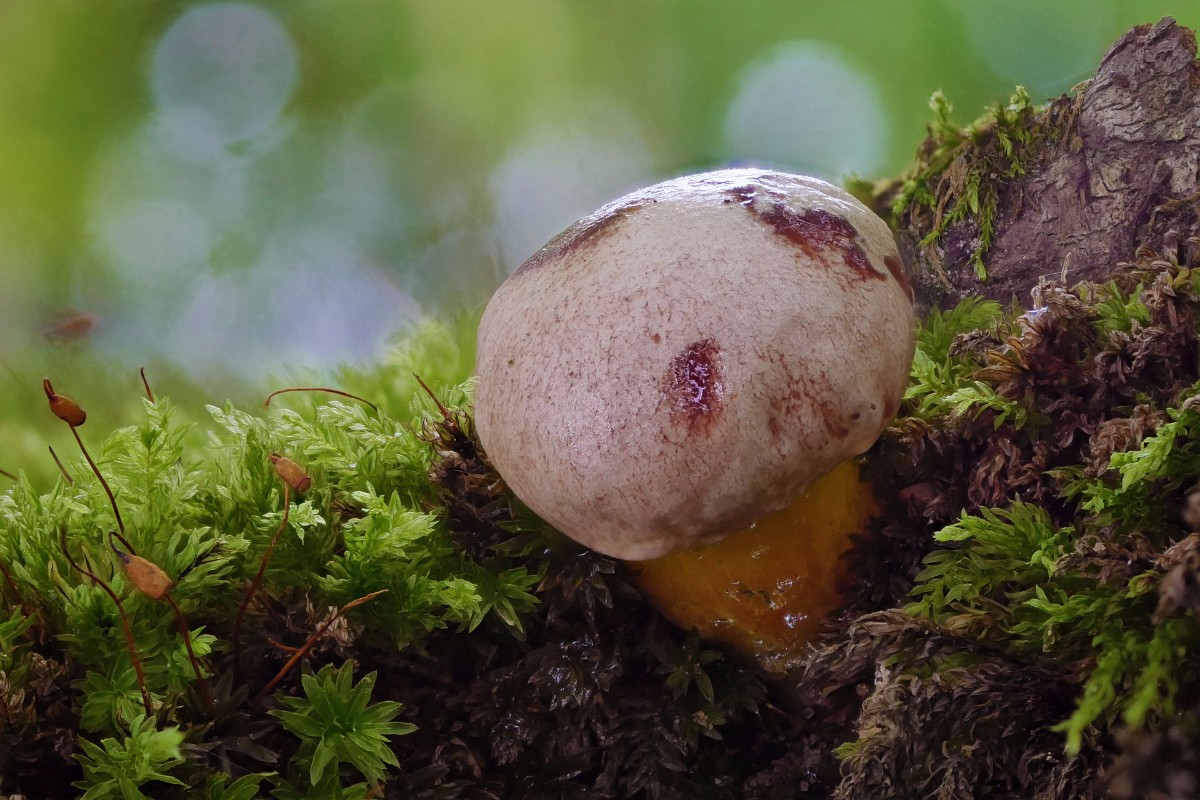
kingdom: Fungi
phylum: Basidiomycota
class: Agaricomycetes
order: Boletales
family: Boletaceae
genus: Aureoboletus
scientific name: Aureoboletus gentilis
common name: guldrørhat
